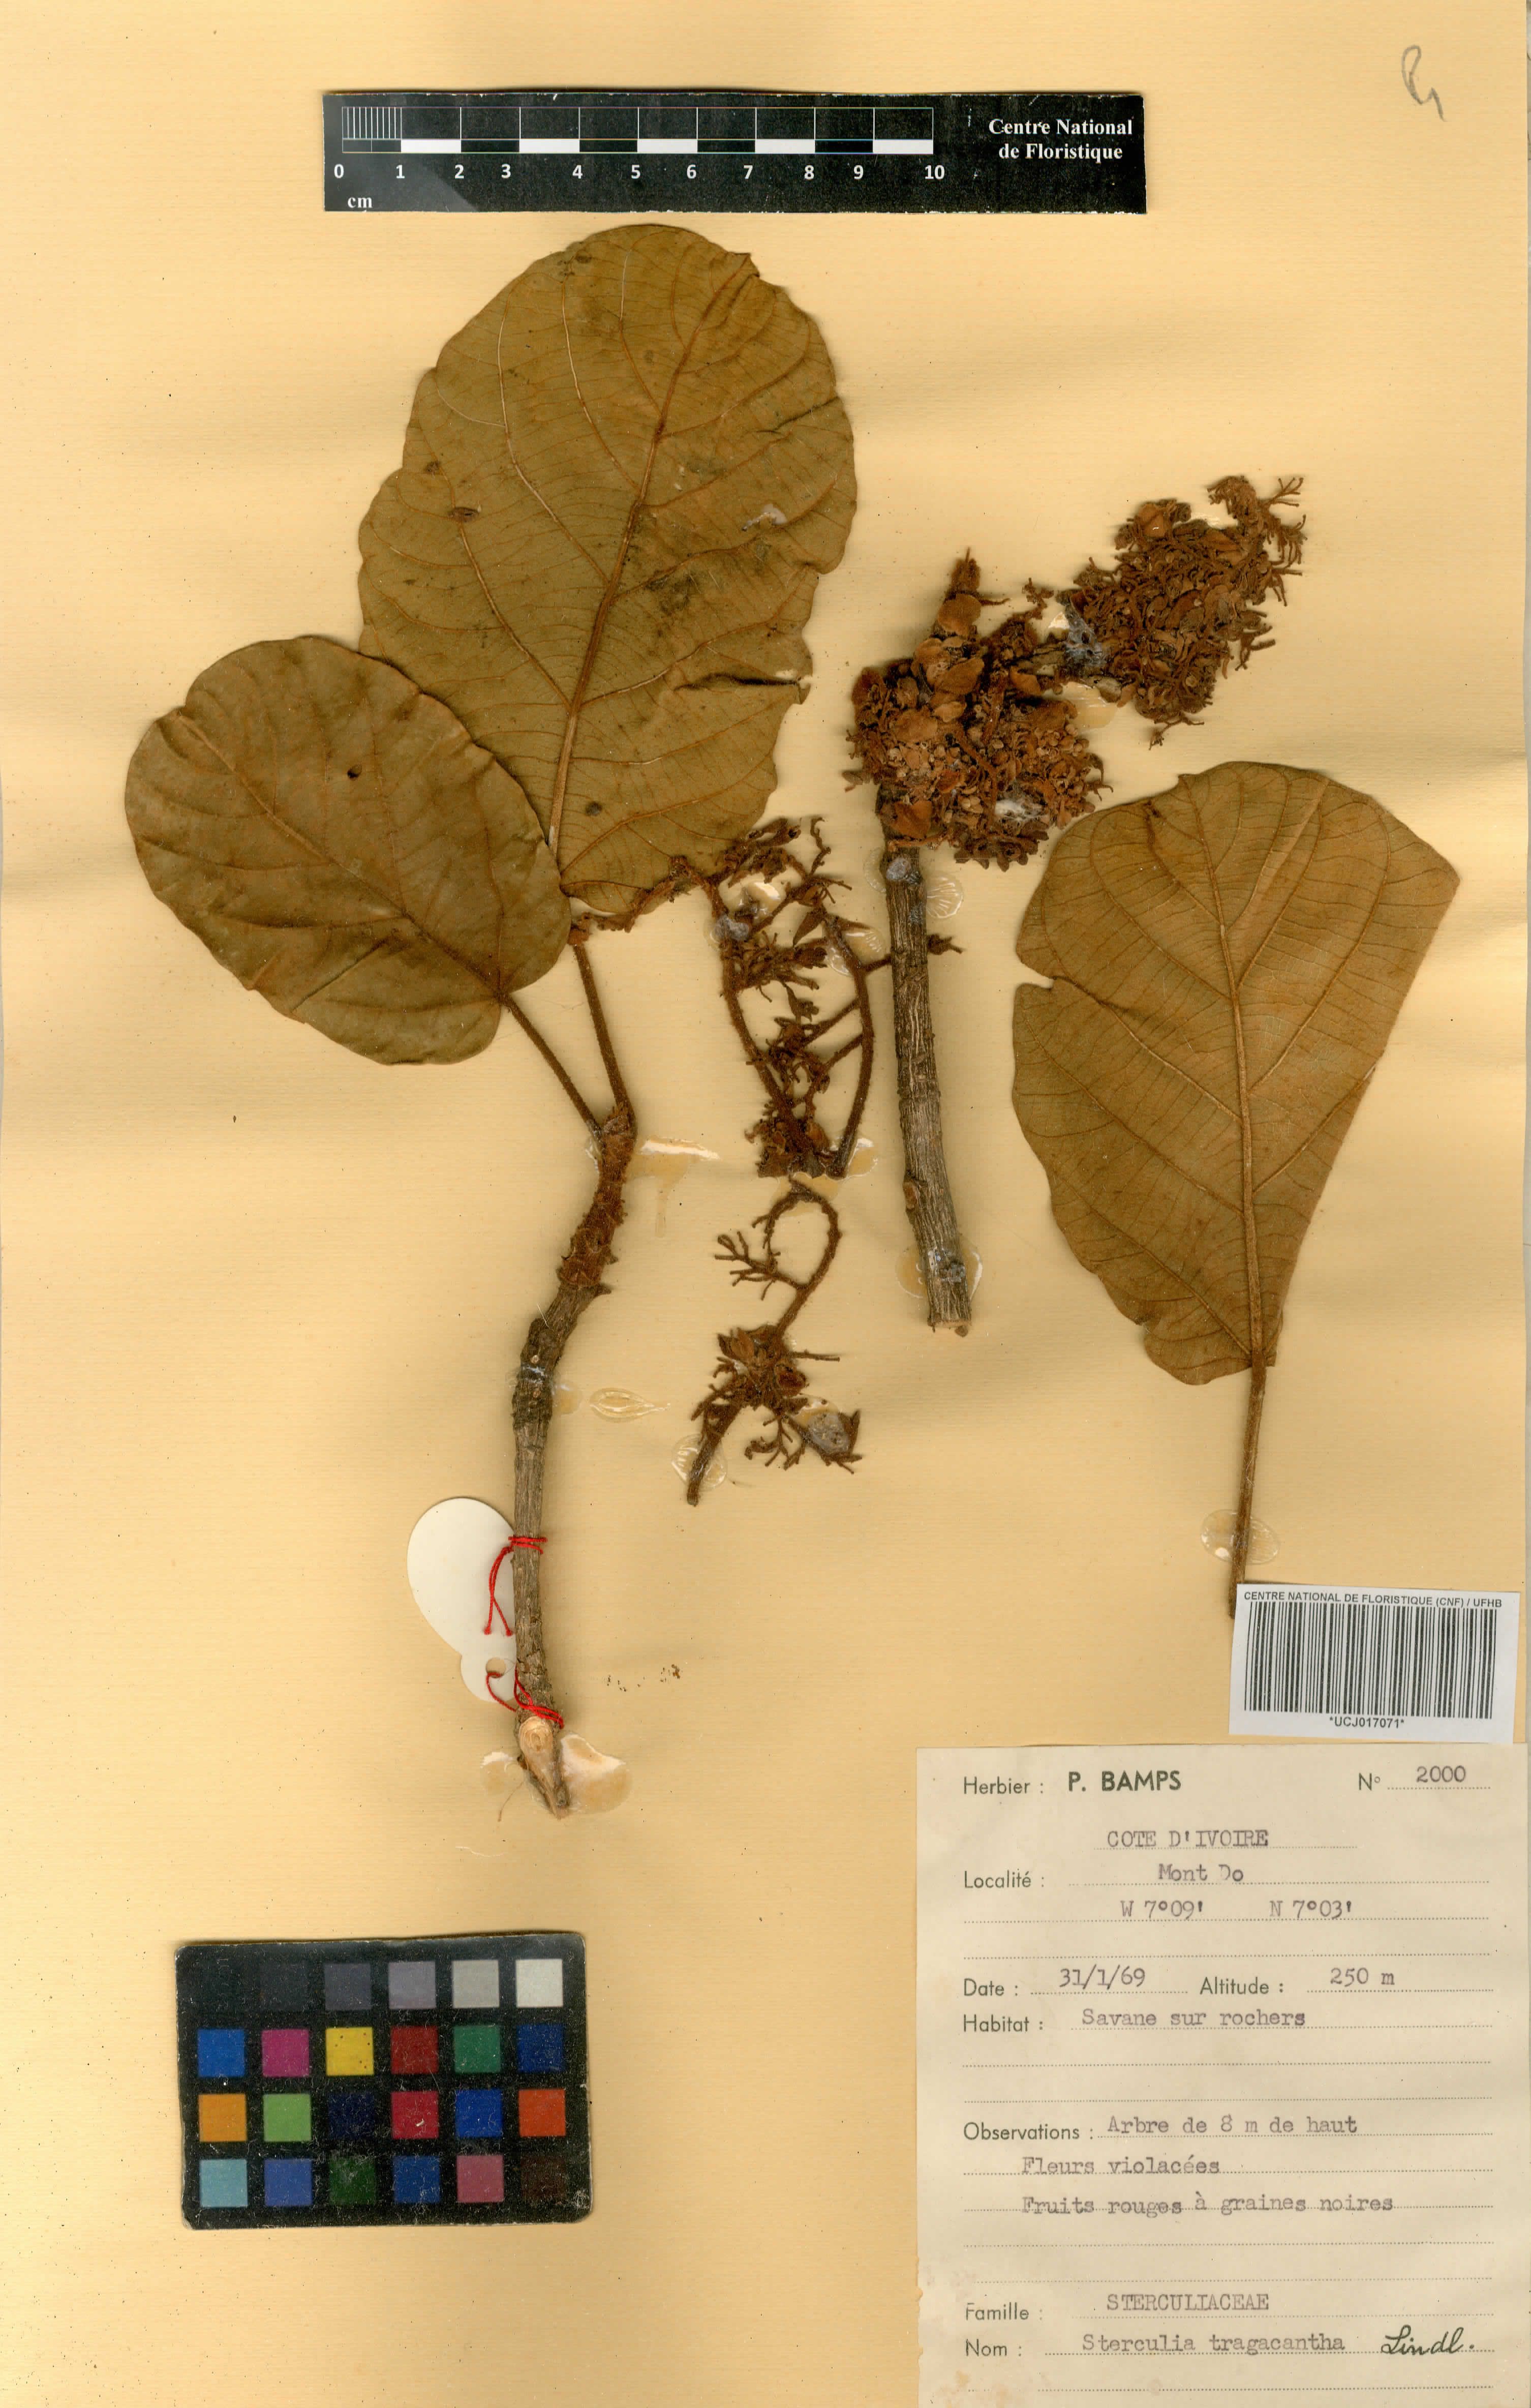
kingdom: Plantae
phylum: Tracheophyta
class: Magnoliopsida
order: Malvales
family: Malvaceae
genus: Sterculia
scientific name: Sterculia tragacantha
